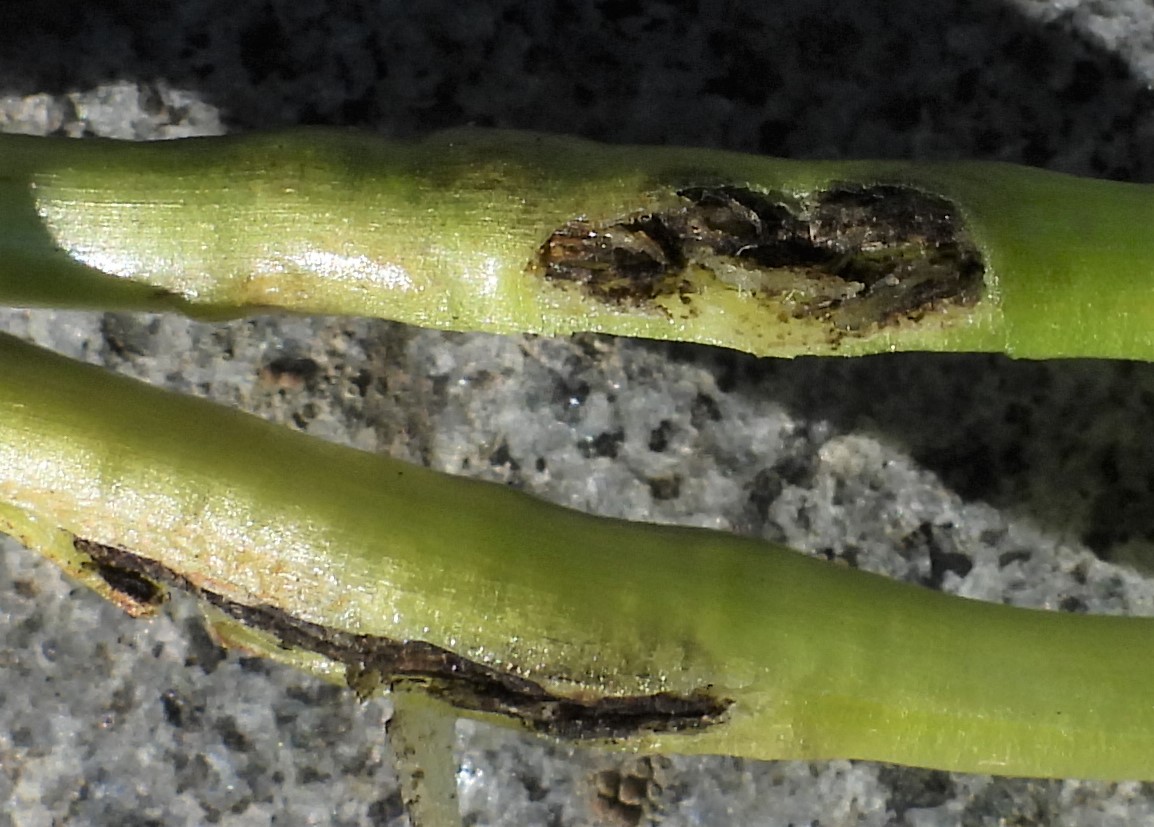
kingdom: Fungi
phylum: Basidiomycota
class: Ustilaginomycetes
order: Urocystidales
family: Urocystidaceae
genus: Urocystis
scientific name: Urocystis eranthidis
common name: erantis-brand
